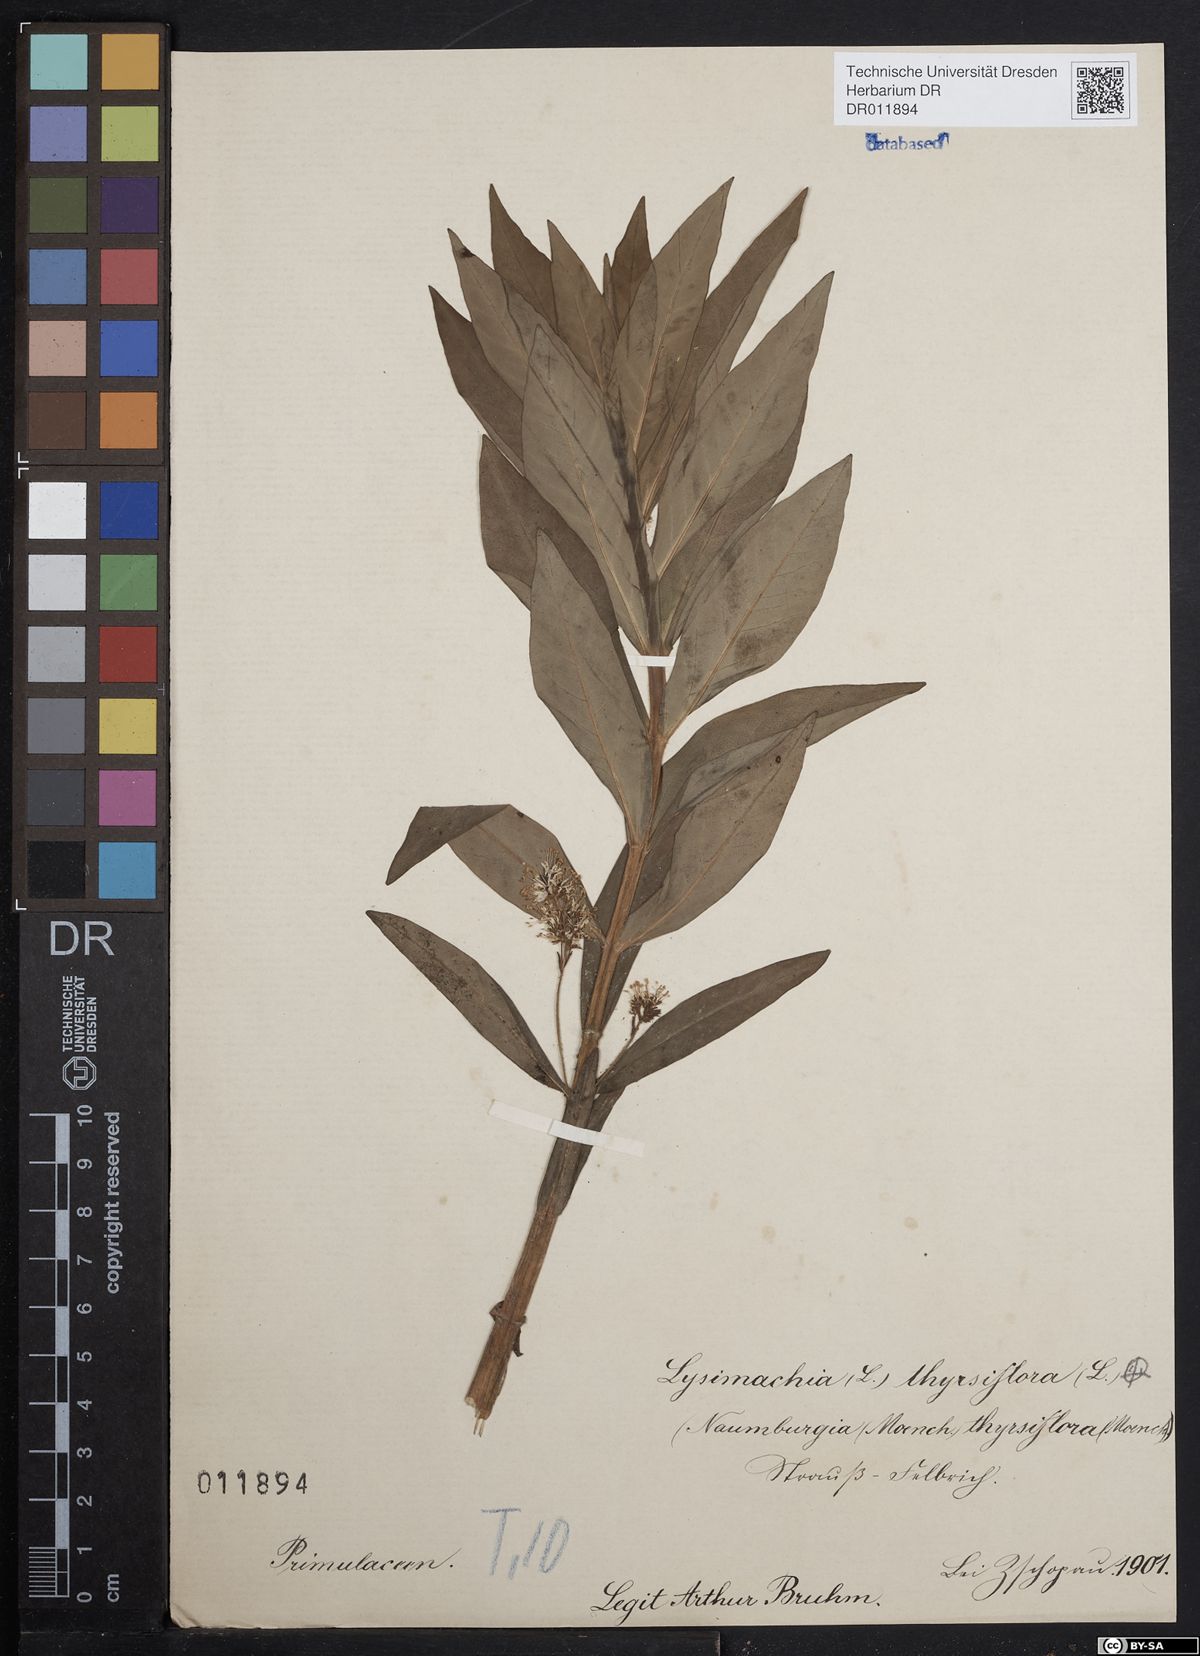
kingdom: Plantae
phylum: Tracheophyta
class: Magnoliopsida
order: Ericales
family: Primulaceae
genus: Lysimachia
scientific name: Lysimachia thyrsiflora
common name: Tufted loosestrife
